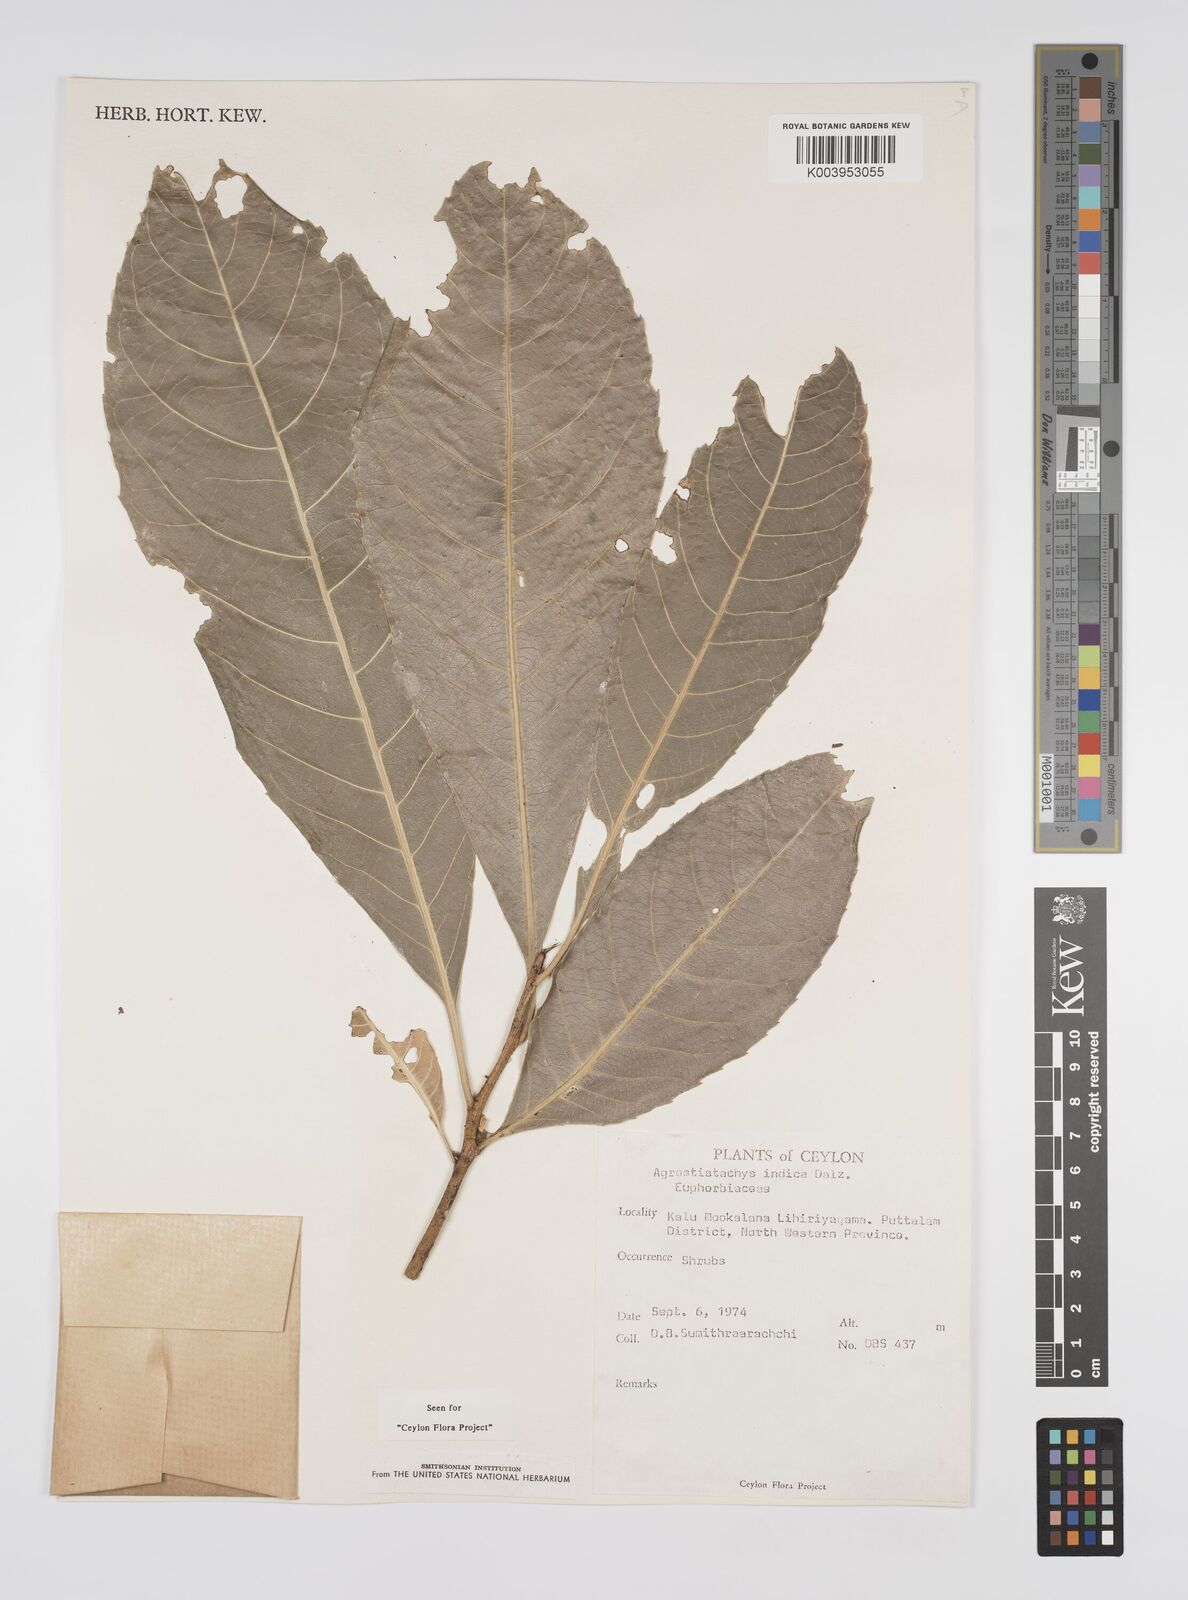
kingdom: Plantae
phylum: Tracheophyta
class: Magnoliopsida
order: Malpighiales
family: Euphorbiaceae
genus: Agrostistachys
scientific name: Agrostistachys indica
